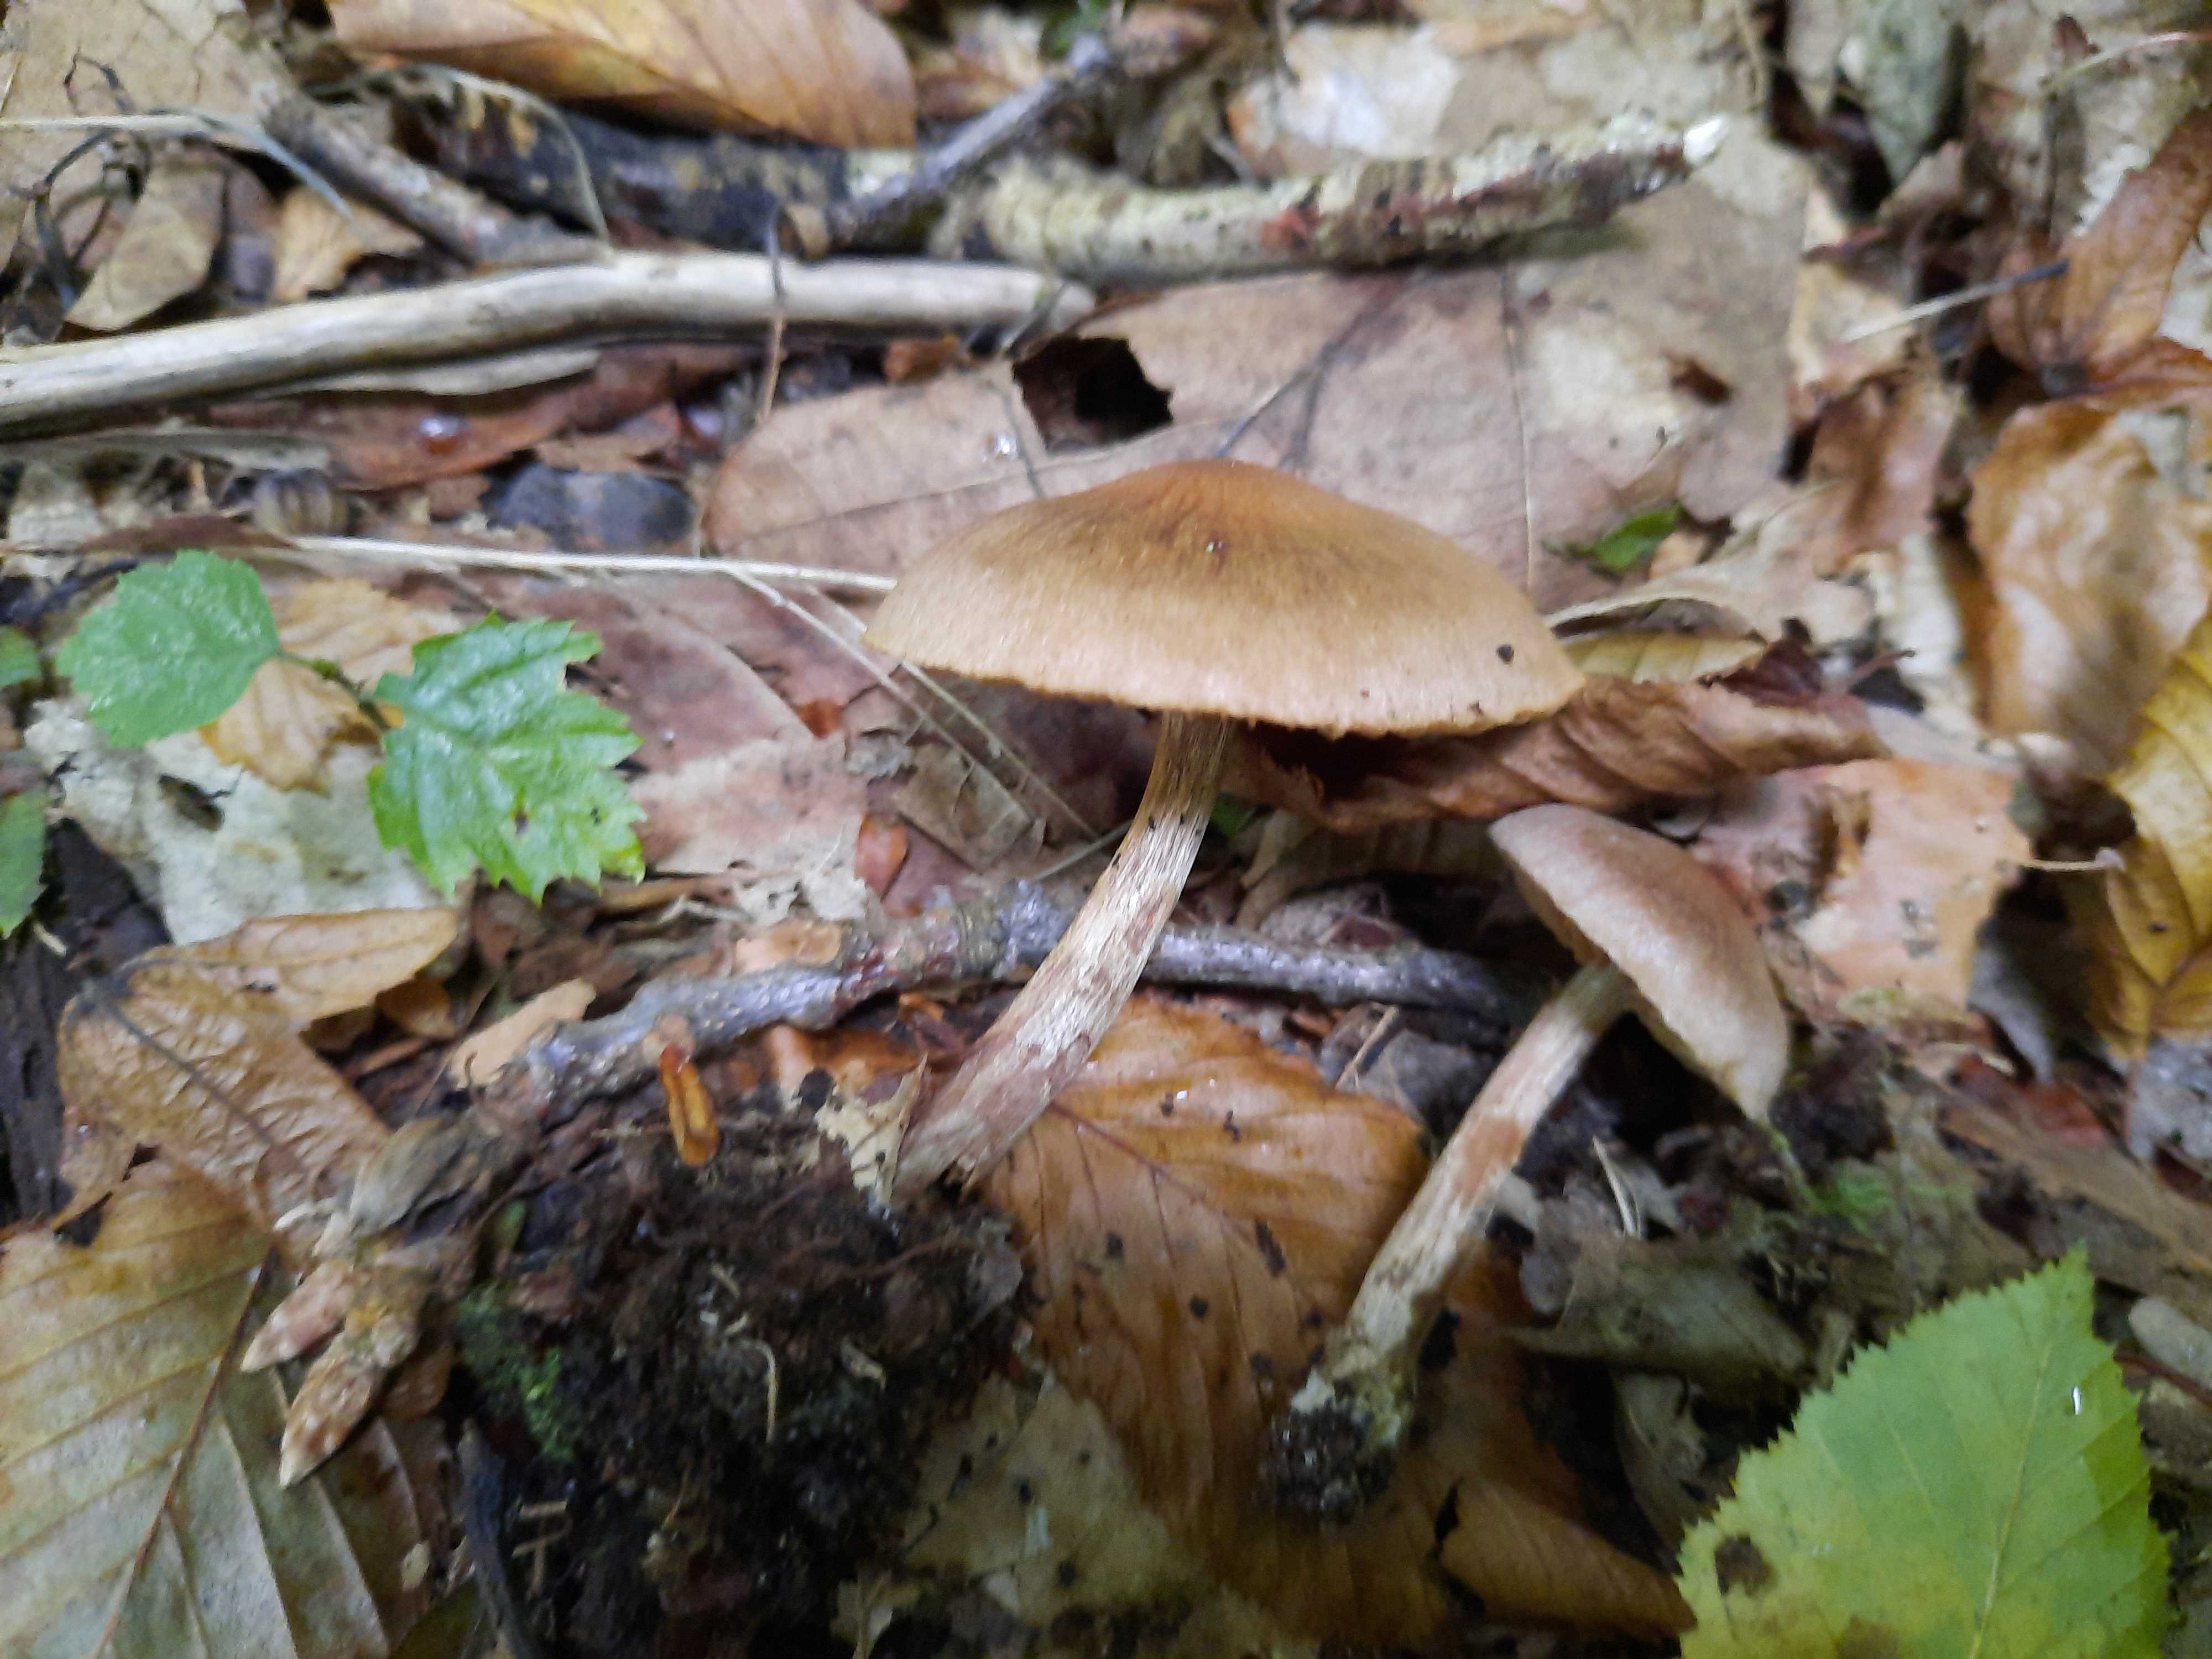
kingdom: Fungi
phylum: Basidiomycota
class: Agaricomycetes
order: Agaricales
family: Cortinariaceae
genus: Cortinarius
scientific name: Cortinarius raphanoides
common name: ræddike-slørhat
